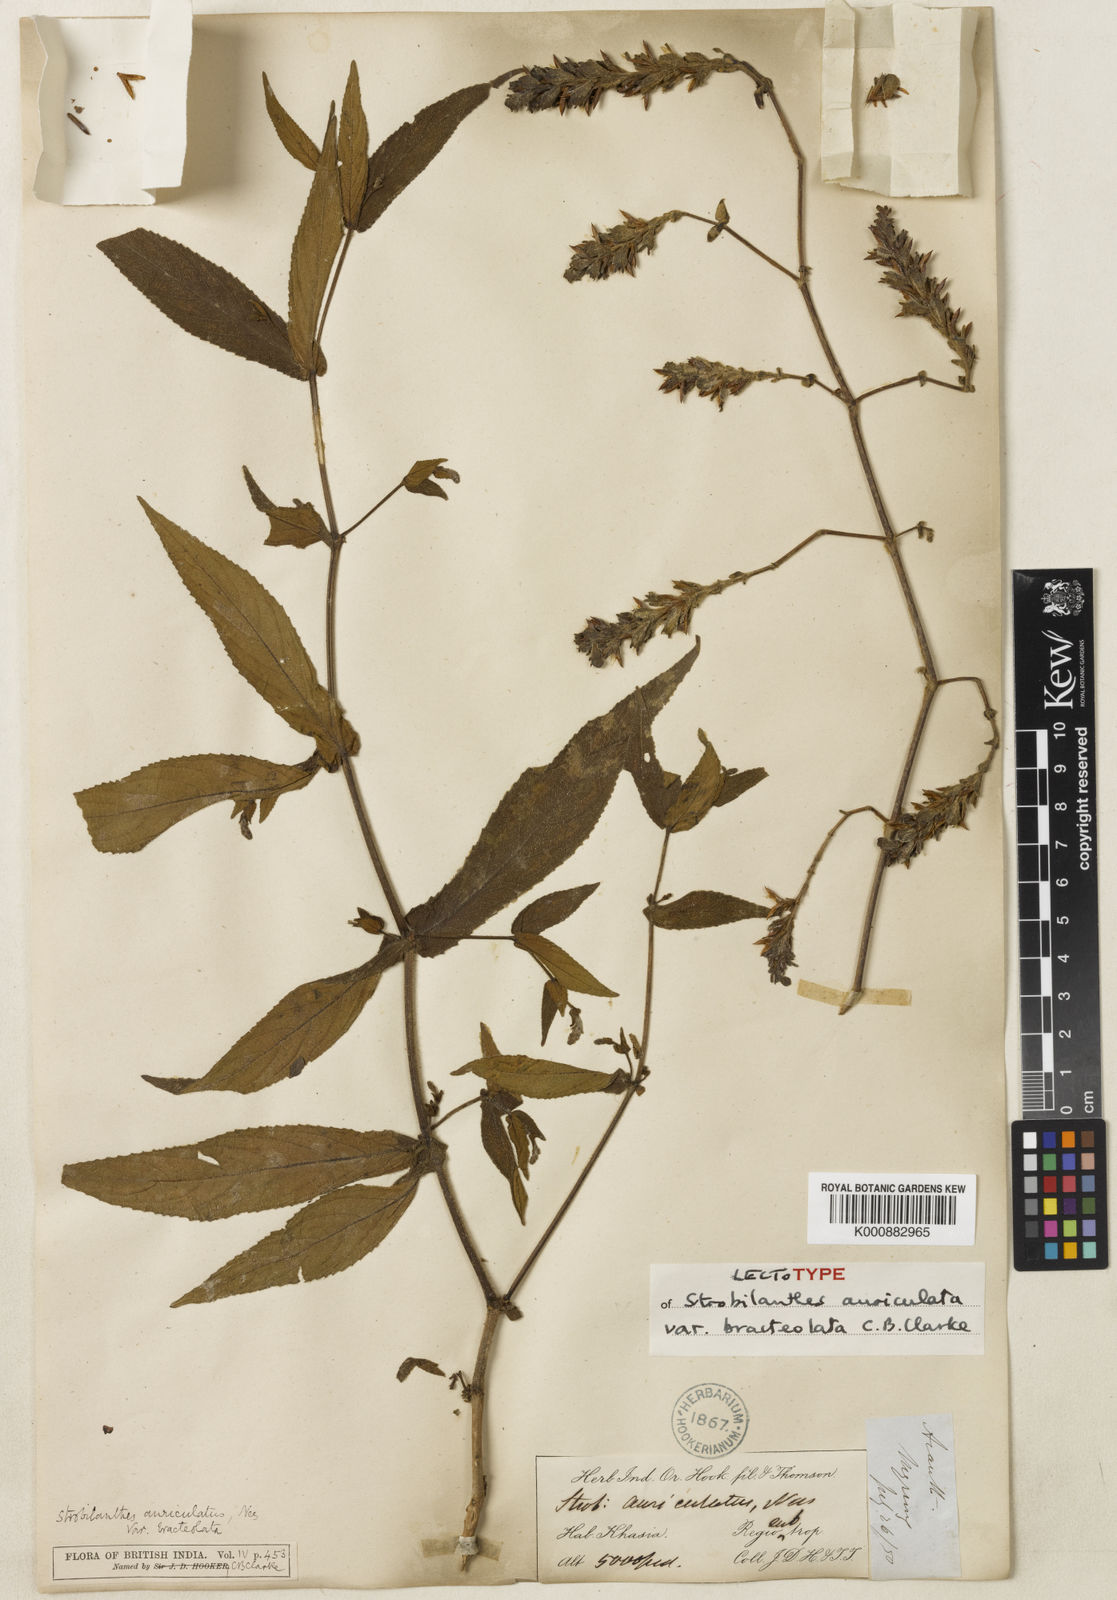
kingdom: Plantae
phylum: Tracheophyta
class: Magnoliopsida
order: Lamiales
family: Acanthaceae
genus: Strobilanthes
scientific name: Strobilanthes auriculata
